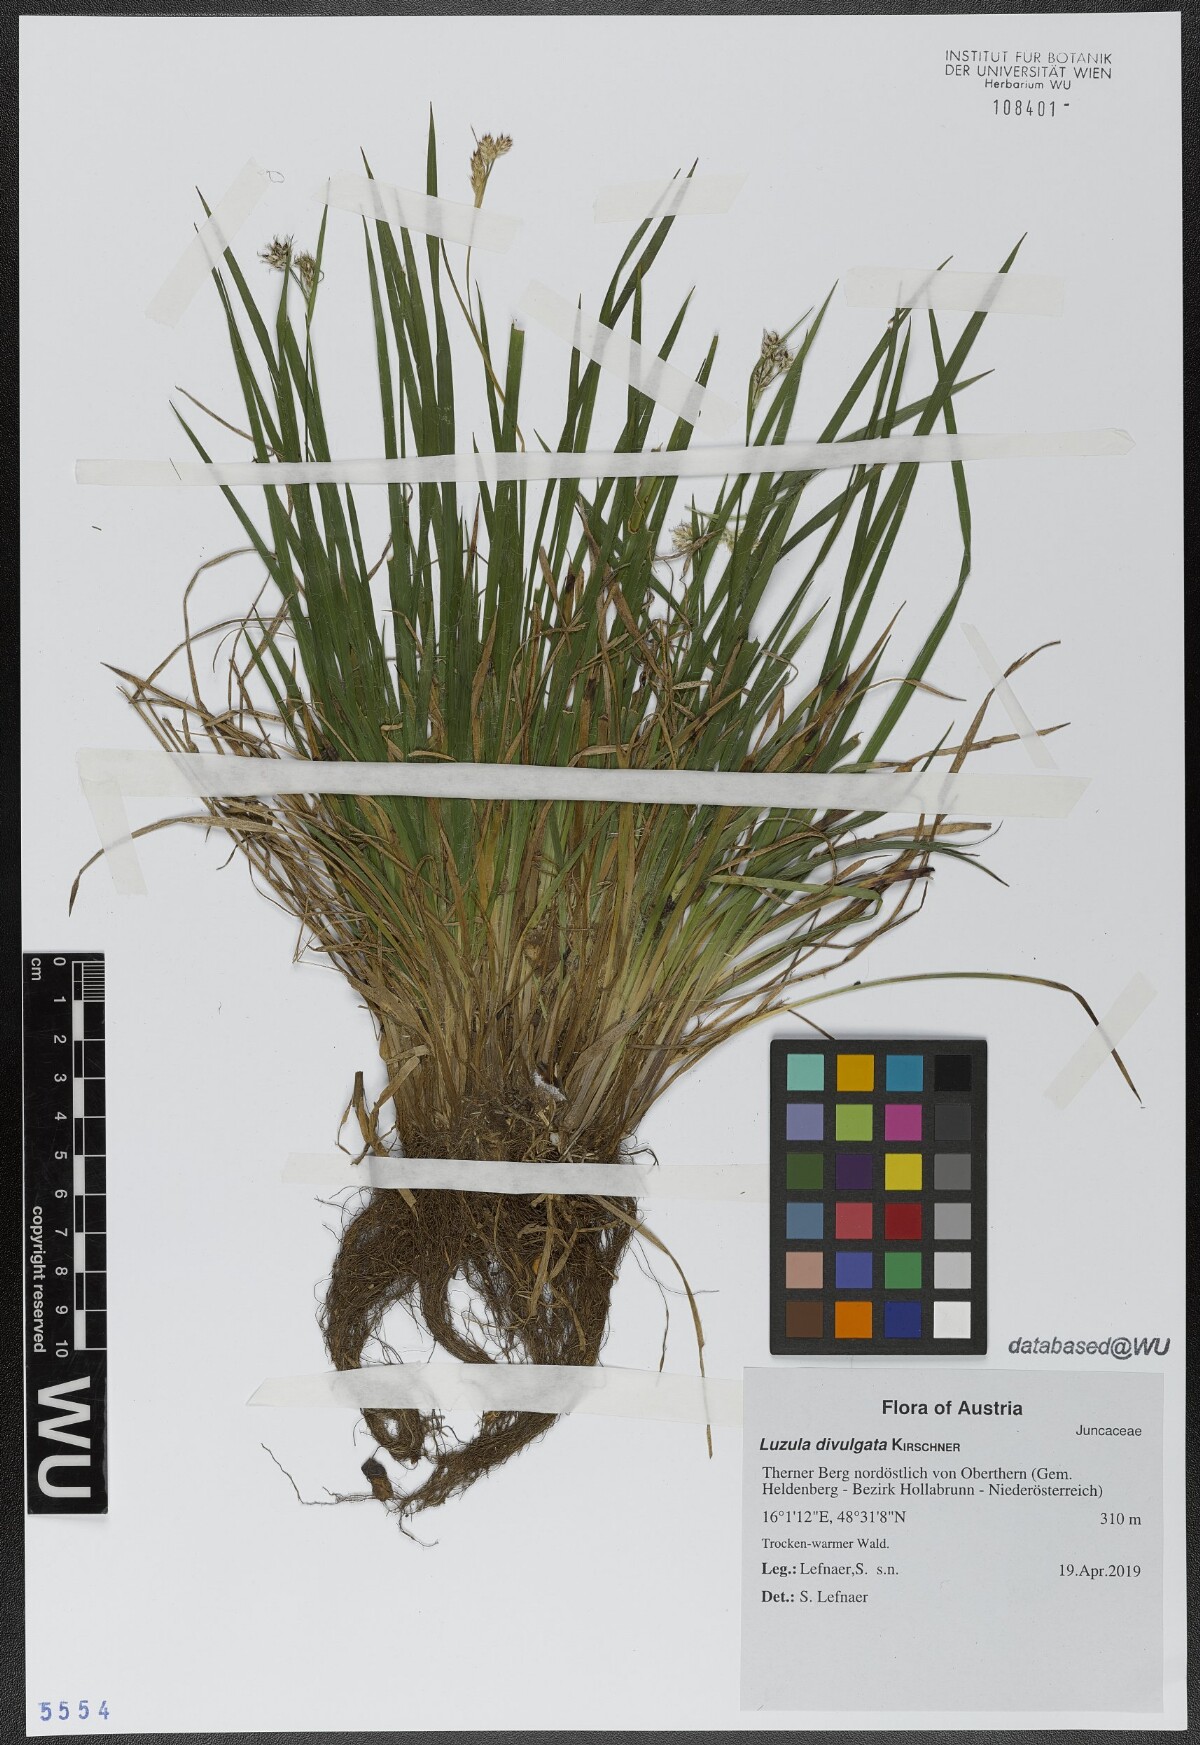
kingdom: Plantae
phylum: Tracheophyta
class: Liliopsida
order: Poales
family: Juncaceae
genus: Luzula
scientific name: Luzula divulgata
